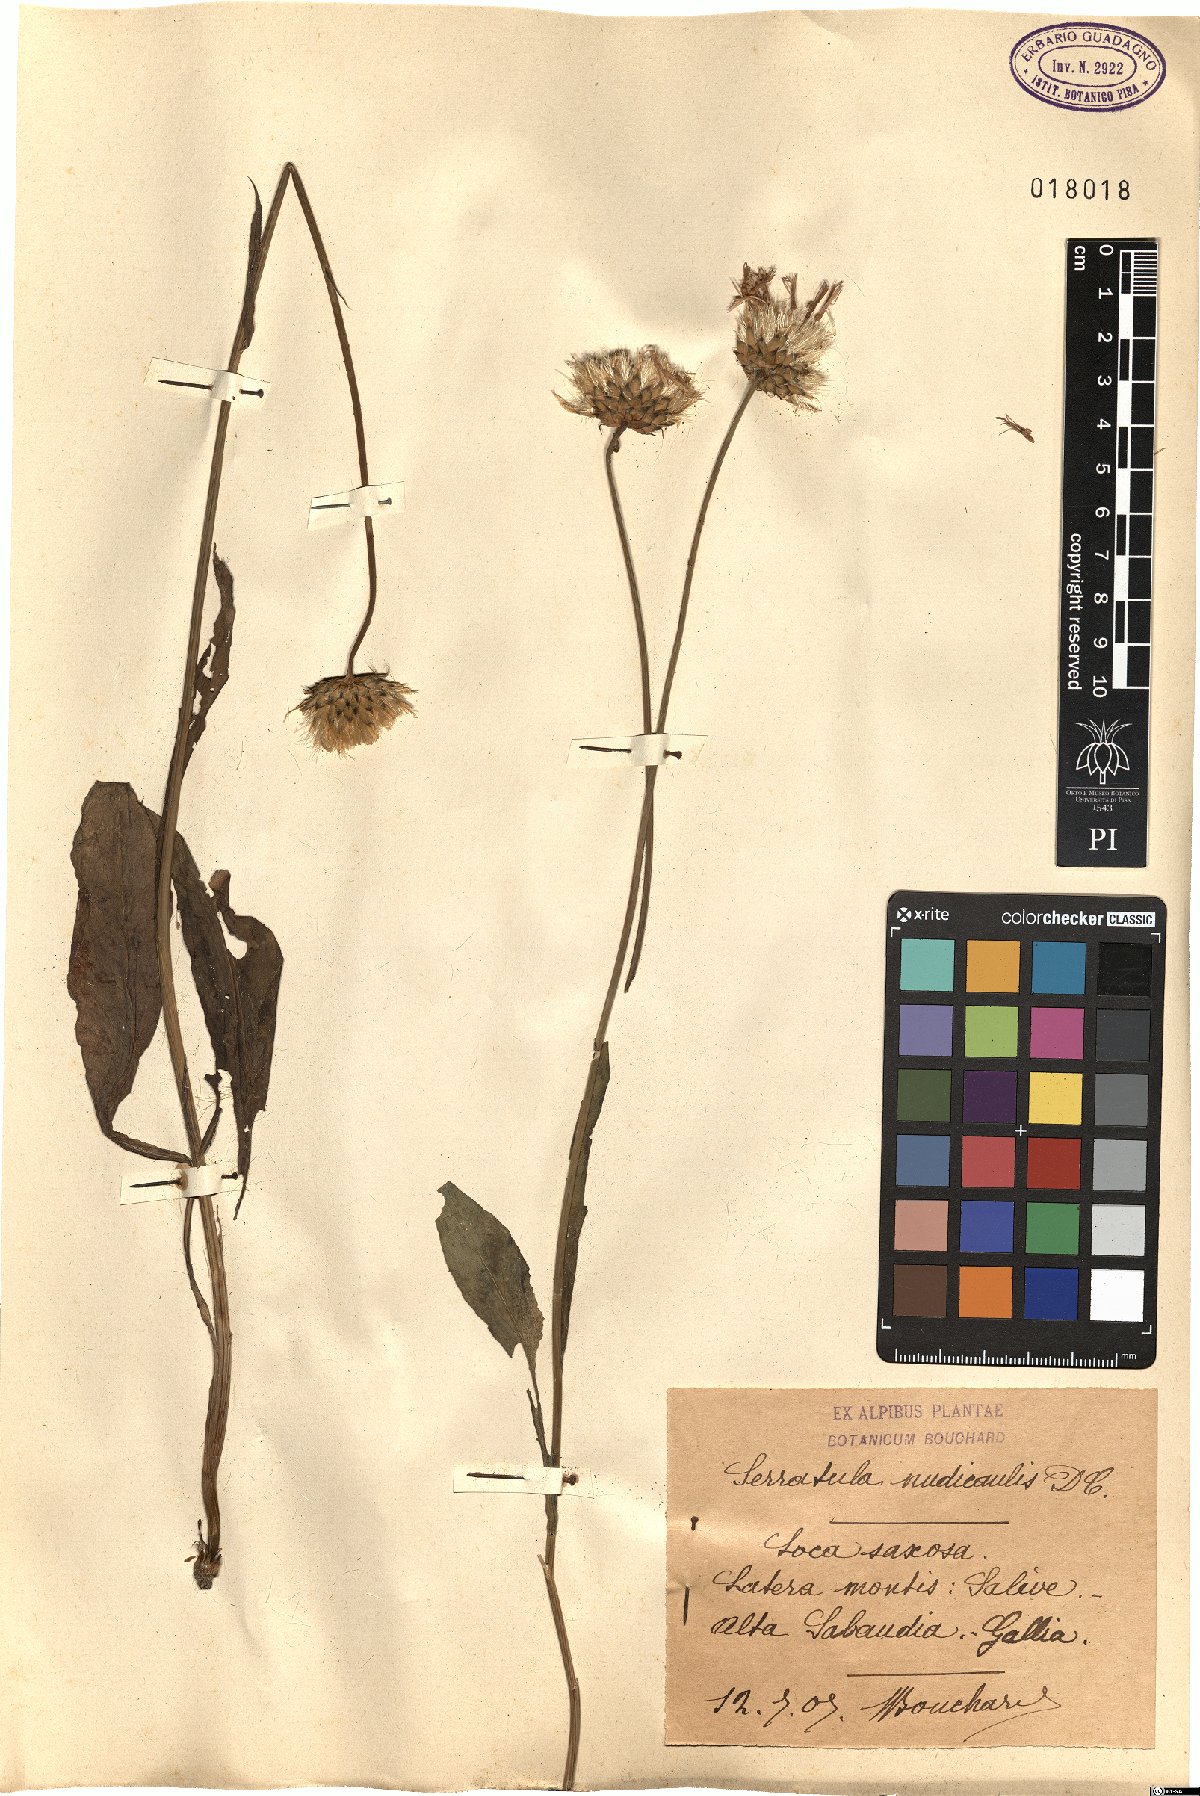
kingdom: Plantae
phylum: Tracheophyta
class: Magnoliopsida
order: Asterales
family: Asteraceae
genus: Klasea
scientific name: Klasea nudicaulis
